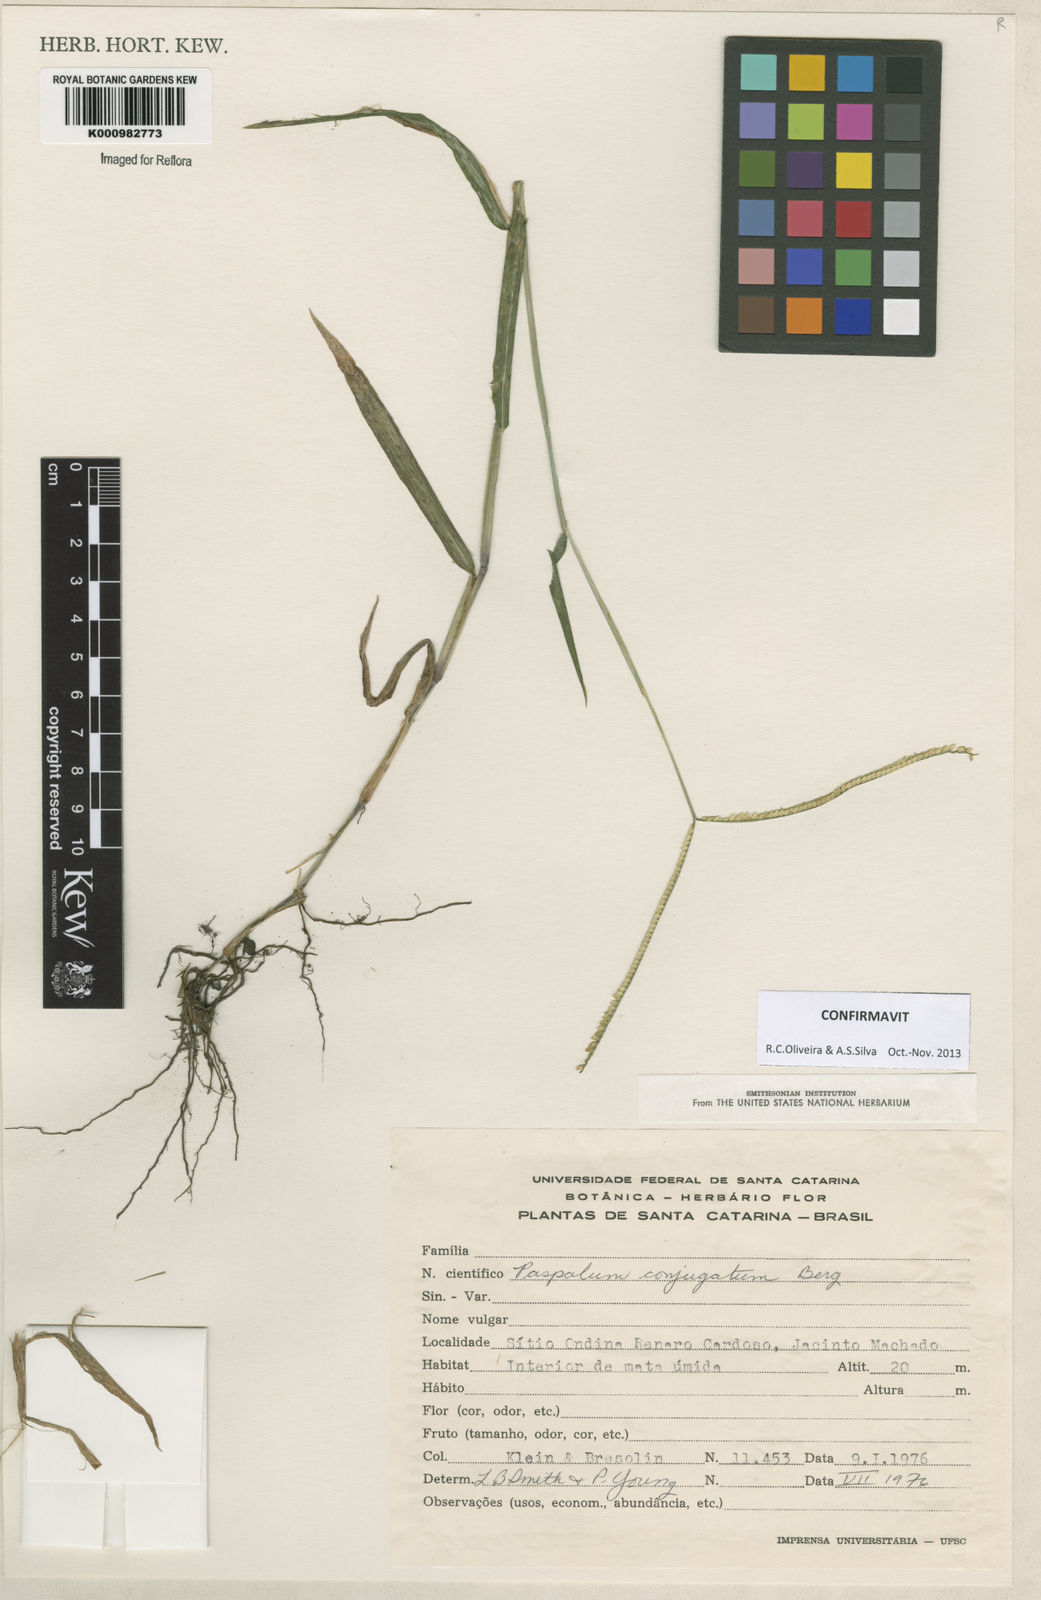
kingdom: Plantae
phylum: Tracheophyta
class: Liliopsida
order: Poales
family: Poaceae
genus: Paspalum
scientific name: Paspalum conjugatum
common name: Hilograss
